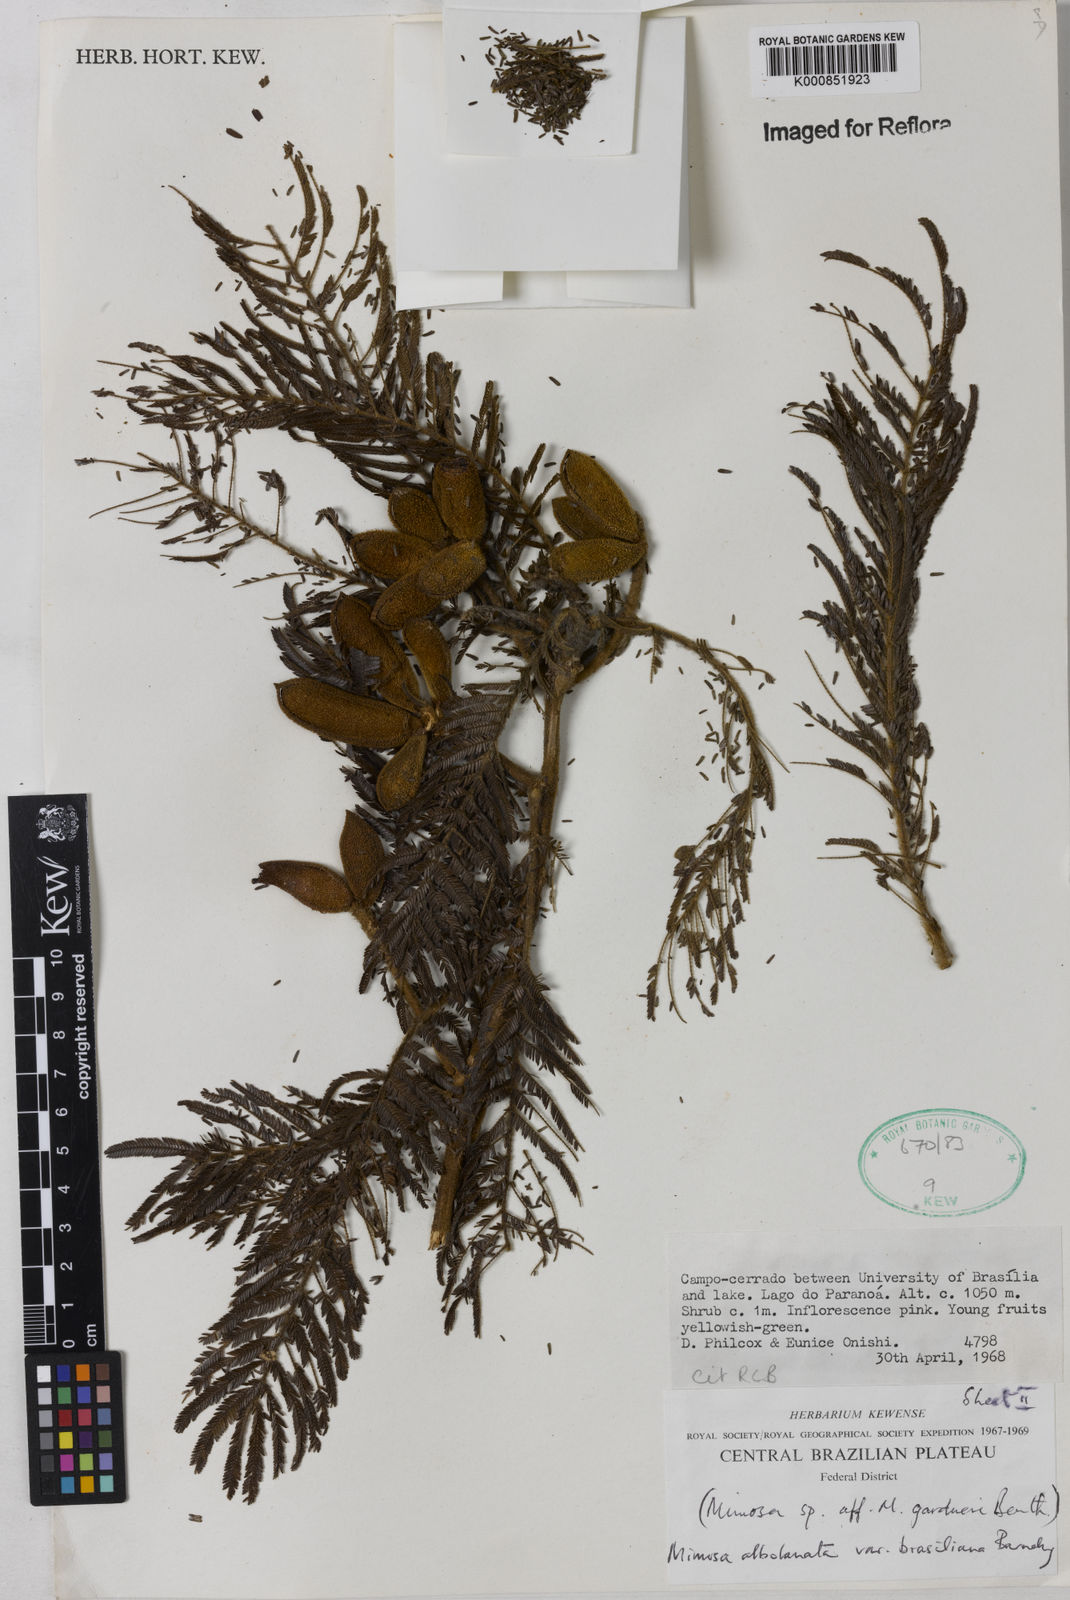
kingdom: Plantae
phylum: Tracheophyta
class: Magnoliopsida
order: Fabales
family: Fabaceae
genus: Mimosa
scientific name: Mimosa albolanata
